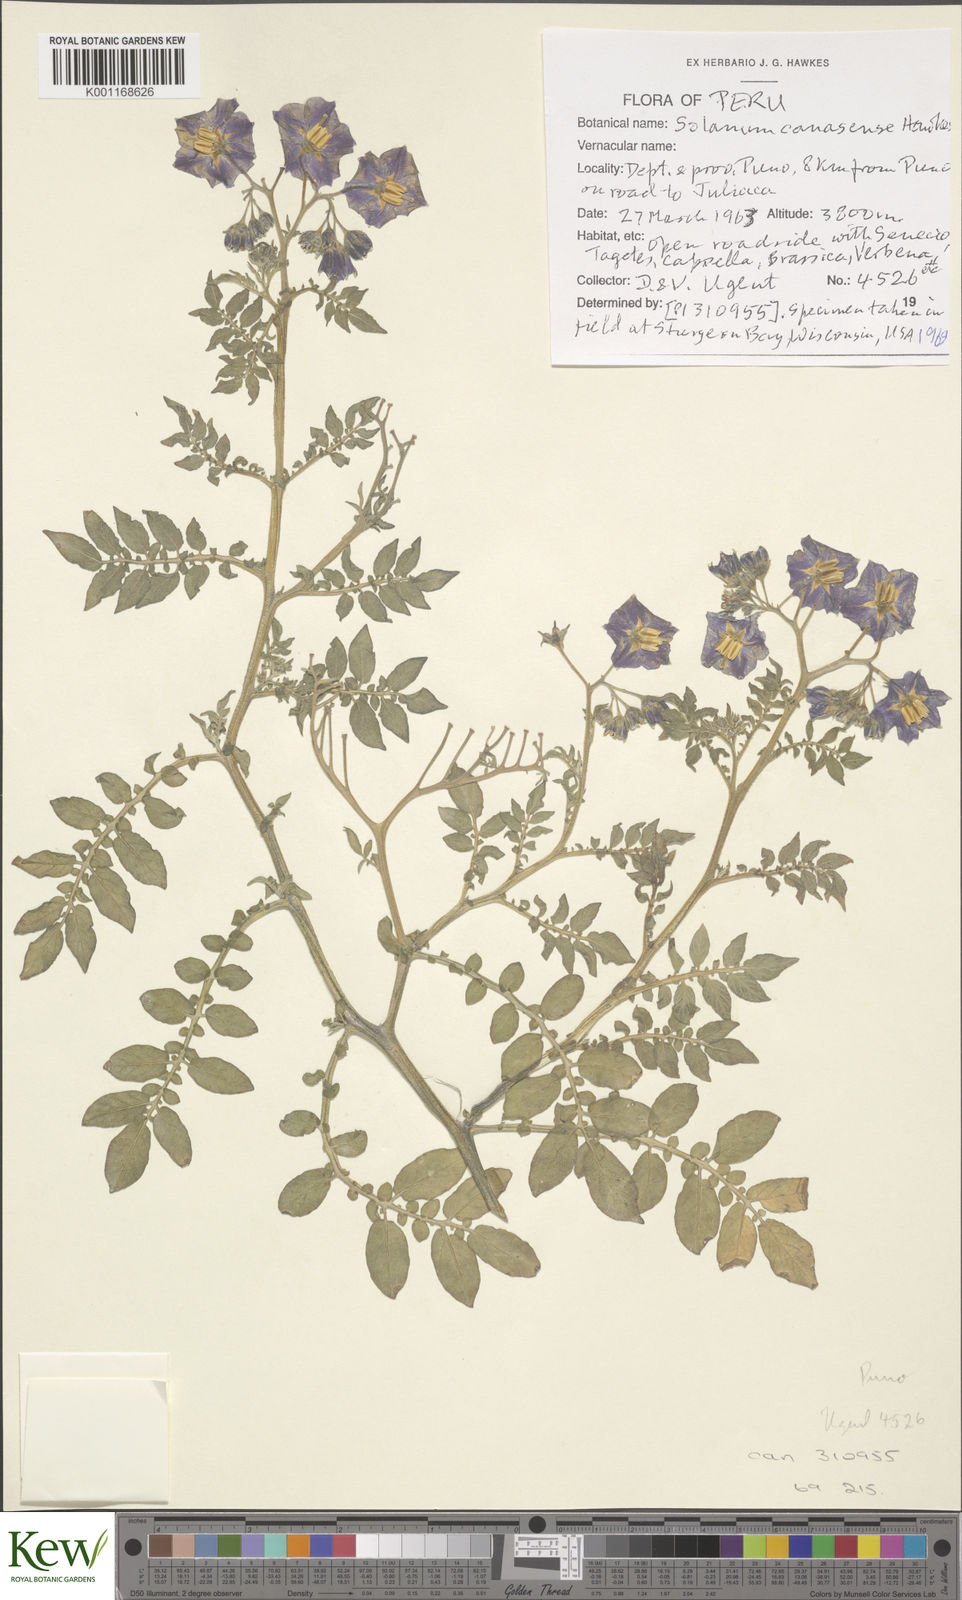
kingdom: Plantae
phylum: Tracheophyta
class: Magnoliopsida
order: Solanales
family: Solanaceae
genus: Solanum
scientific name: Solanum candolleanum
